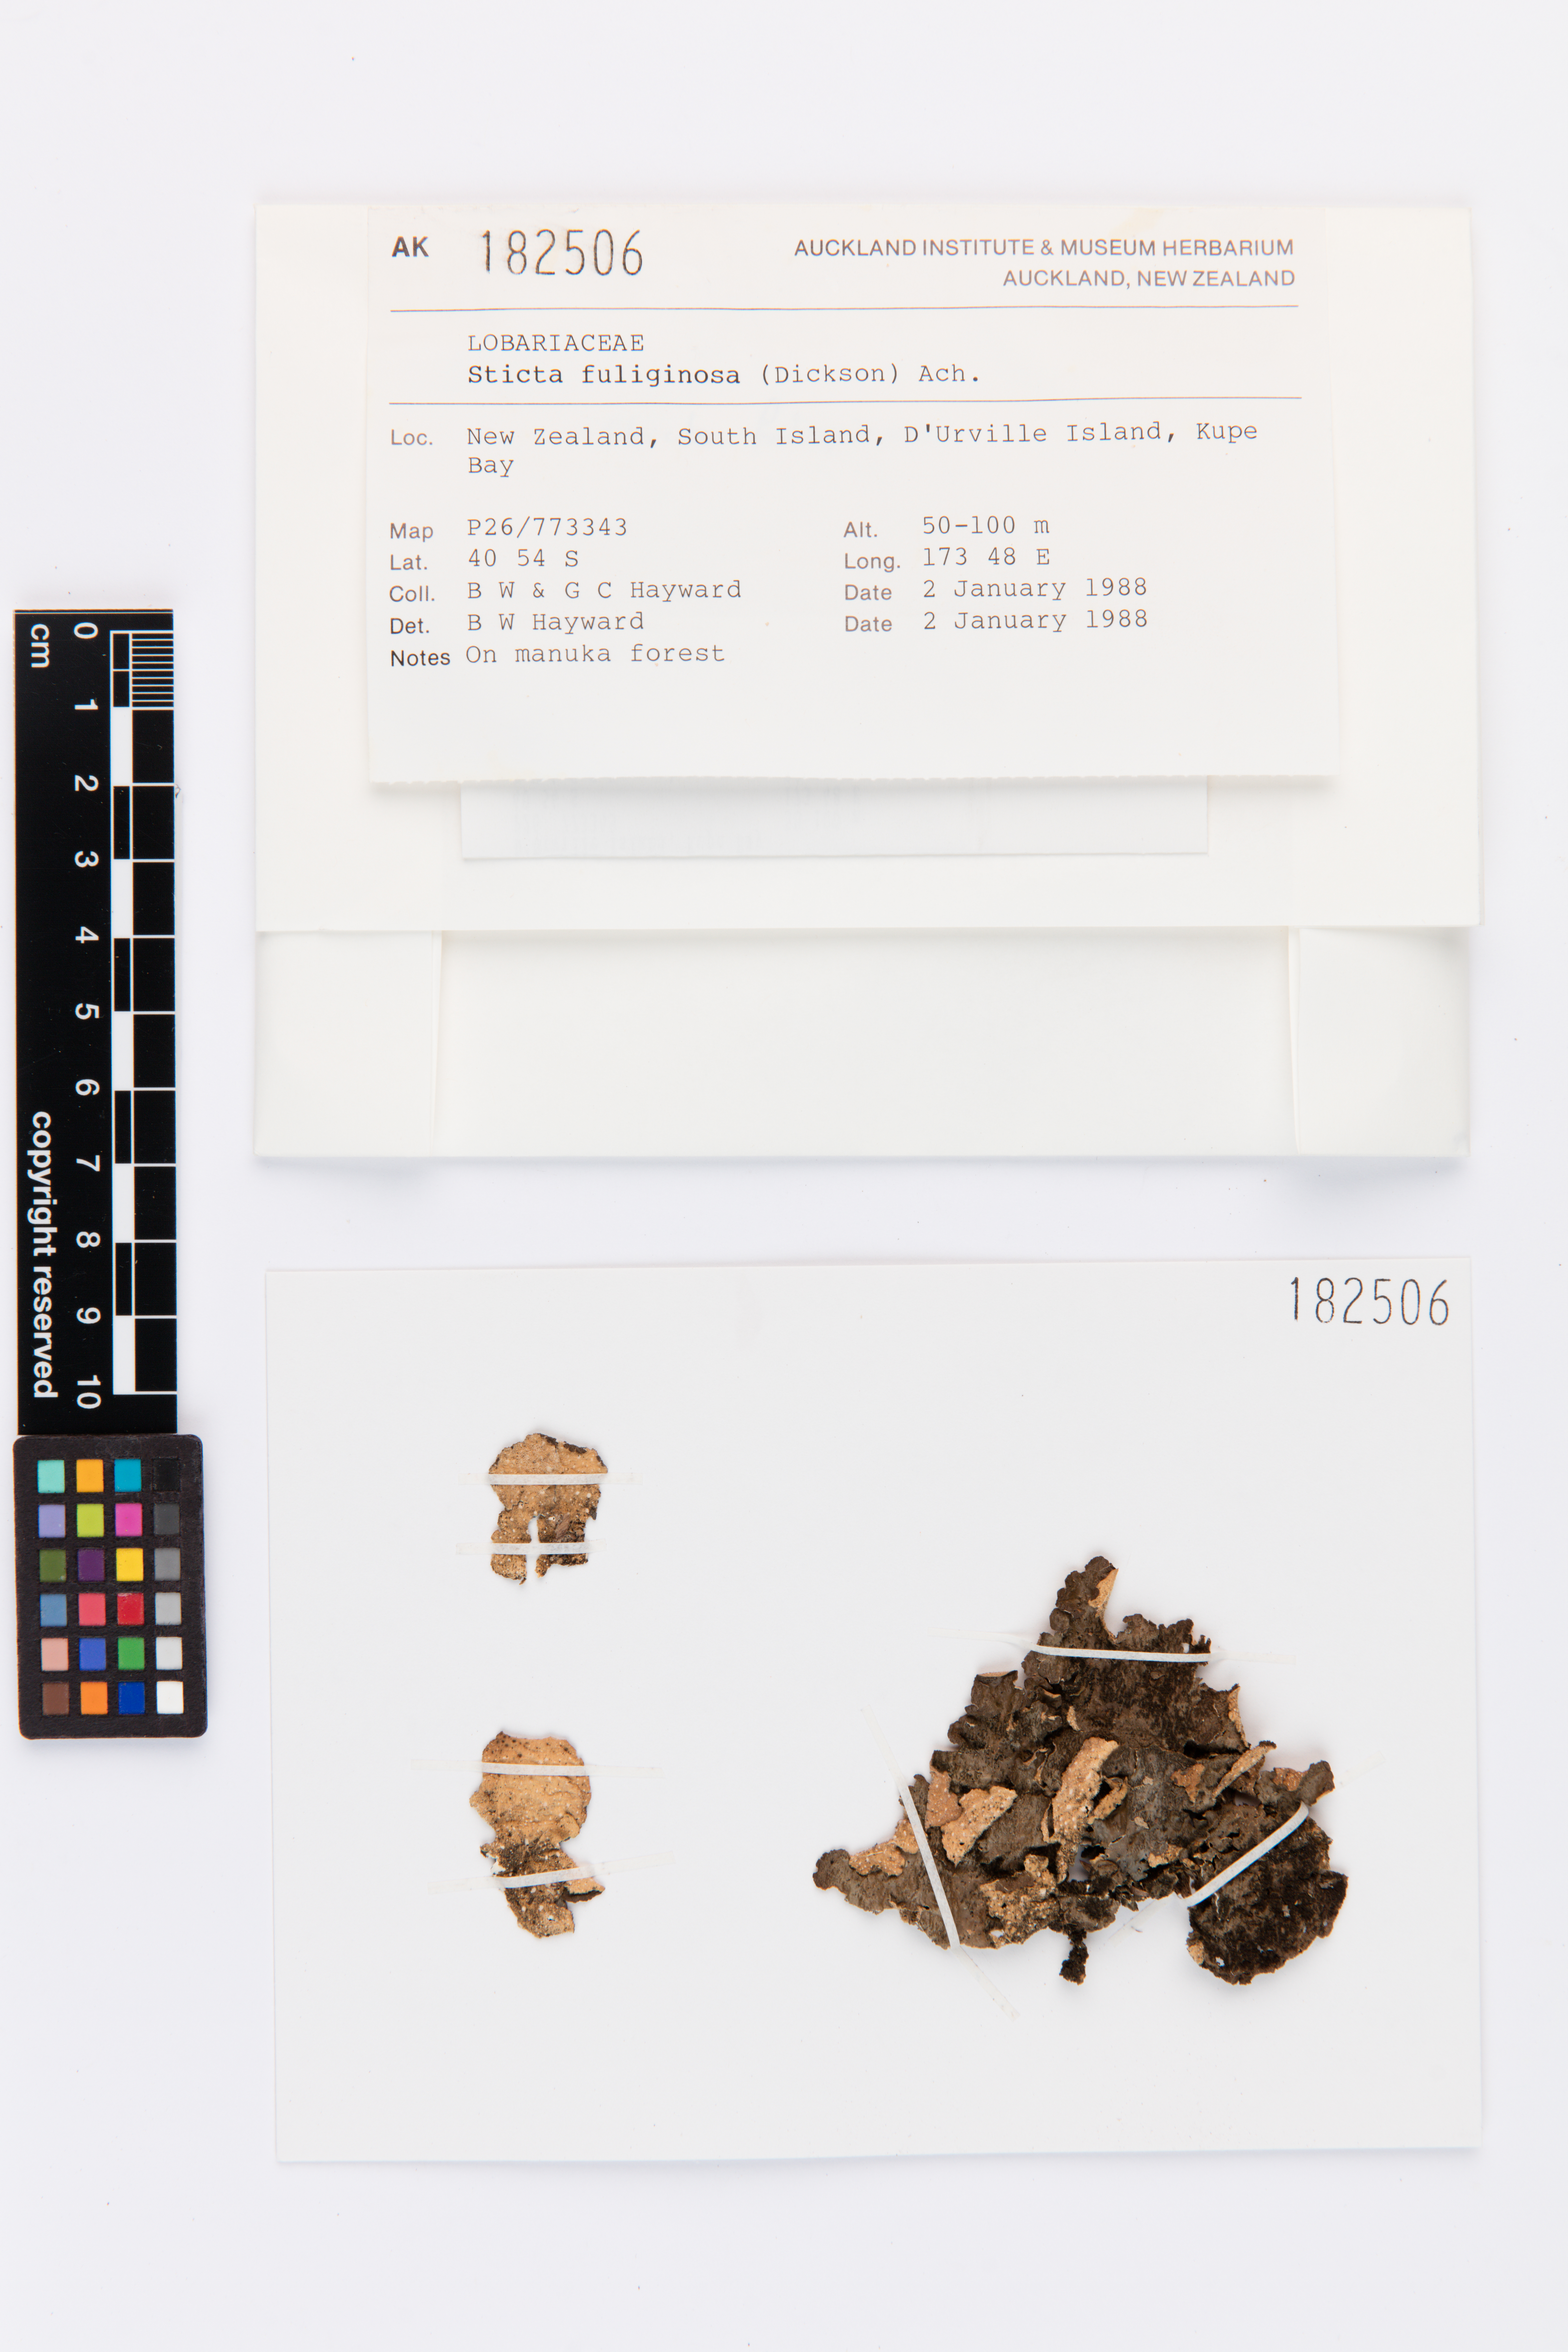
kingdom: Fungi
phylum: Ascomycota
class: Lecanoromycetes
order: Peltigerales
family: Lobariaceae
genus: Sticta
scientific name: Sticta fuliginosa
